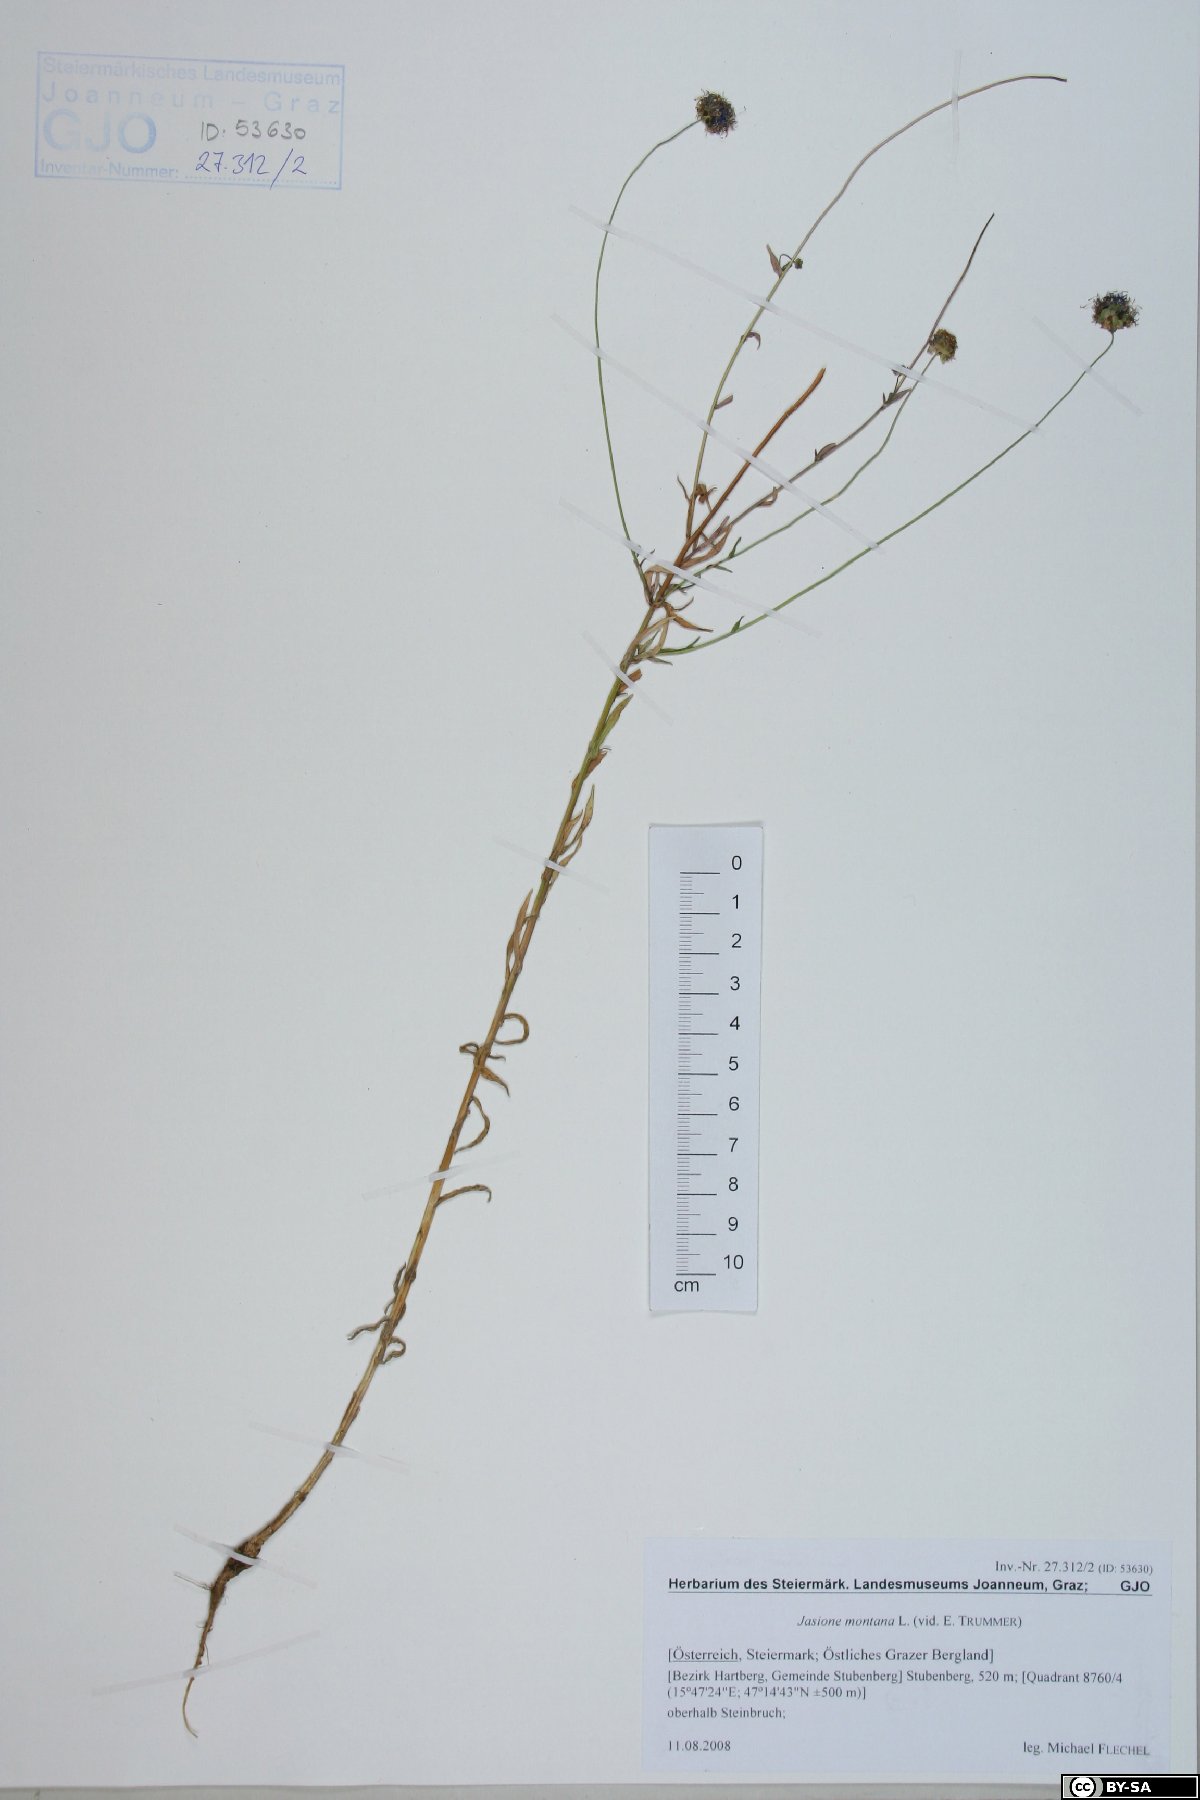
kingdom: Plantae
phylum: Tracheophyta
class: Magnoliopsida
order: Asterales
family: Campanulaceae
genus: Jasione
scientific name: Jasione montana
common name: Sheep's-bit
